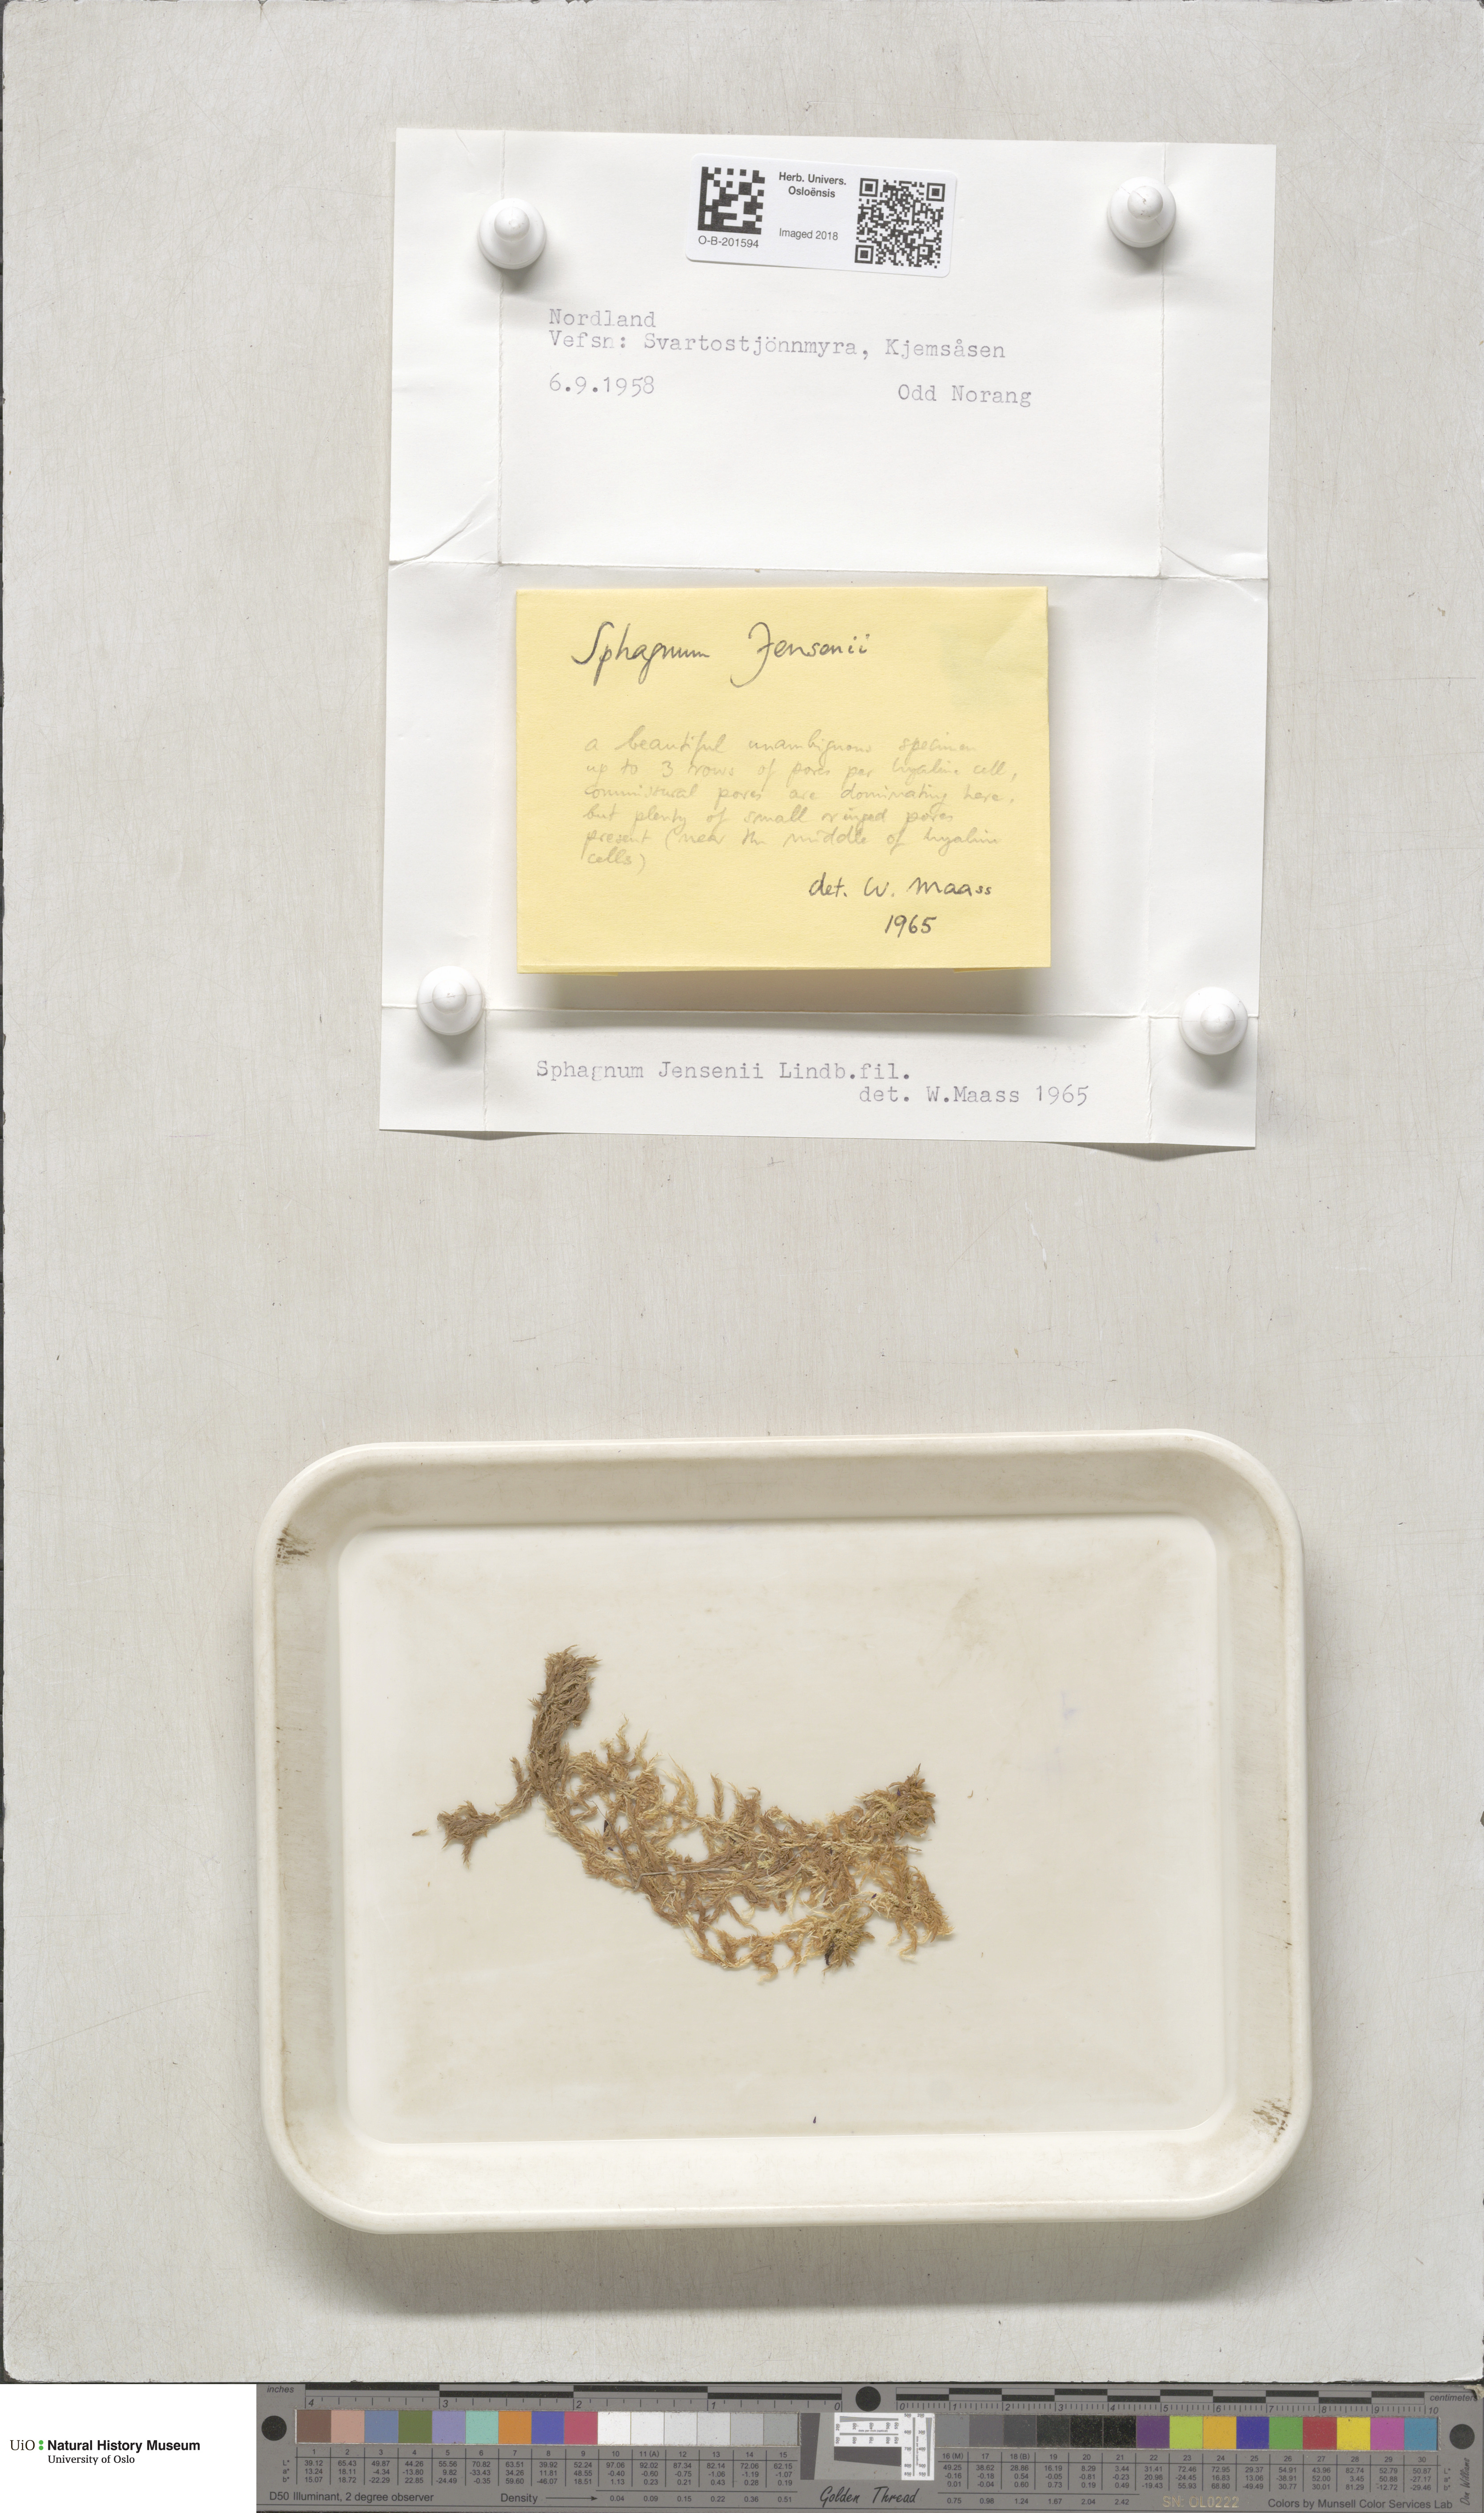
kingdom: Plantae
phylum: Bryophyta
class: Sphagnopsida
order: Sphagnales
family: Sphagnaceae
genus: Sphagnum
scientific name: Sphagnum jensenii
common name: Jensen's peat moss
